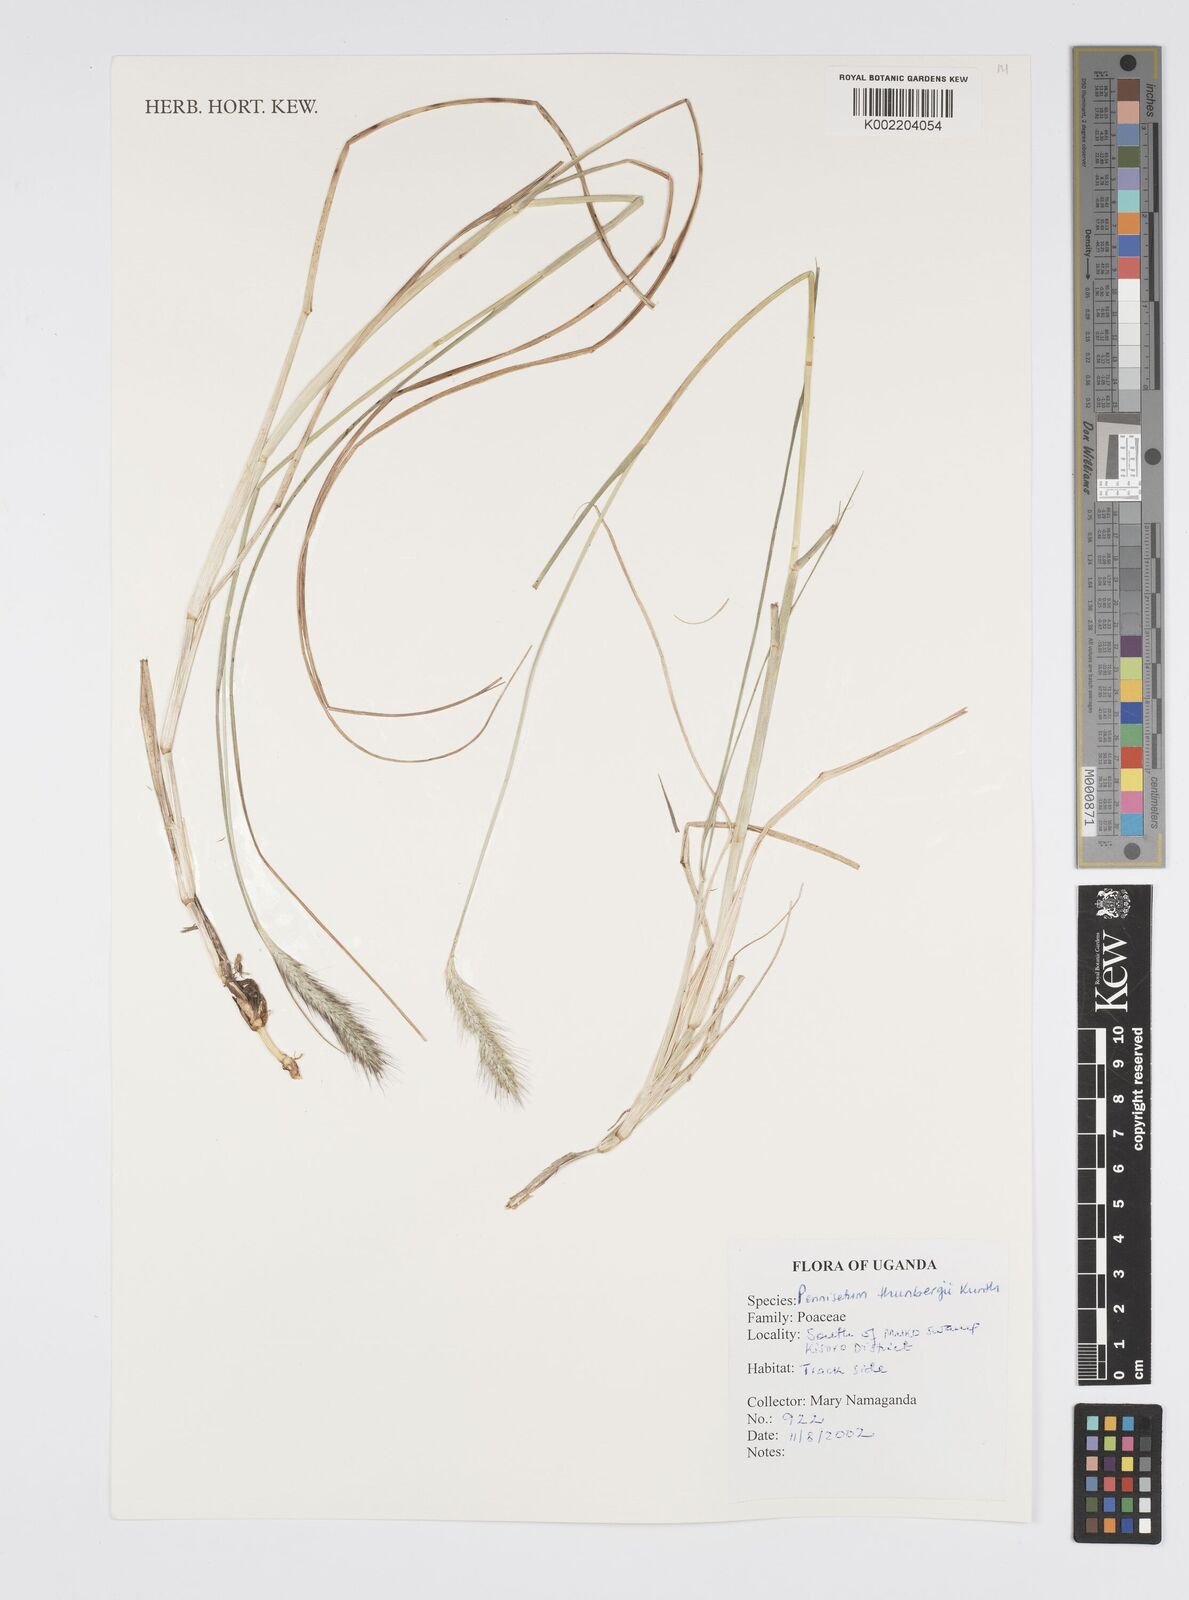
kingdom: Plantae
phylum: Tracheophyta
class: Liliopsida
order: Poales
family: Poaceae
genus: Cenchrus
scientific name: Cenchrus geniculatus
